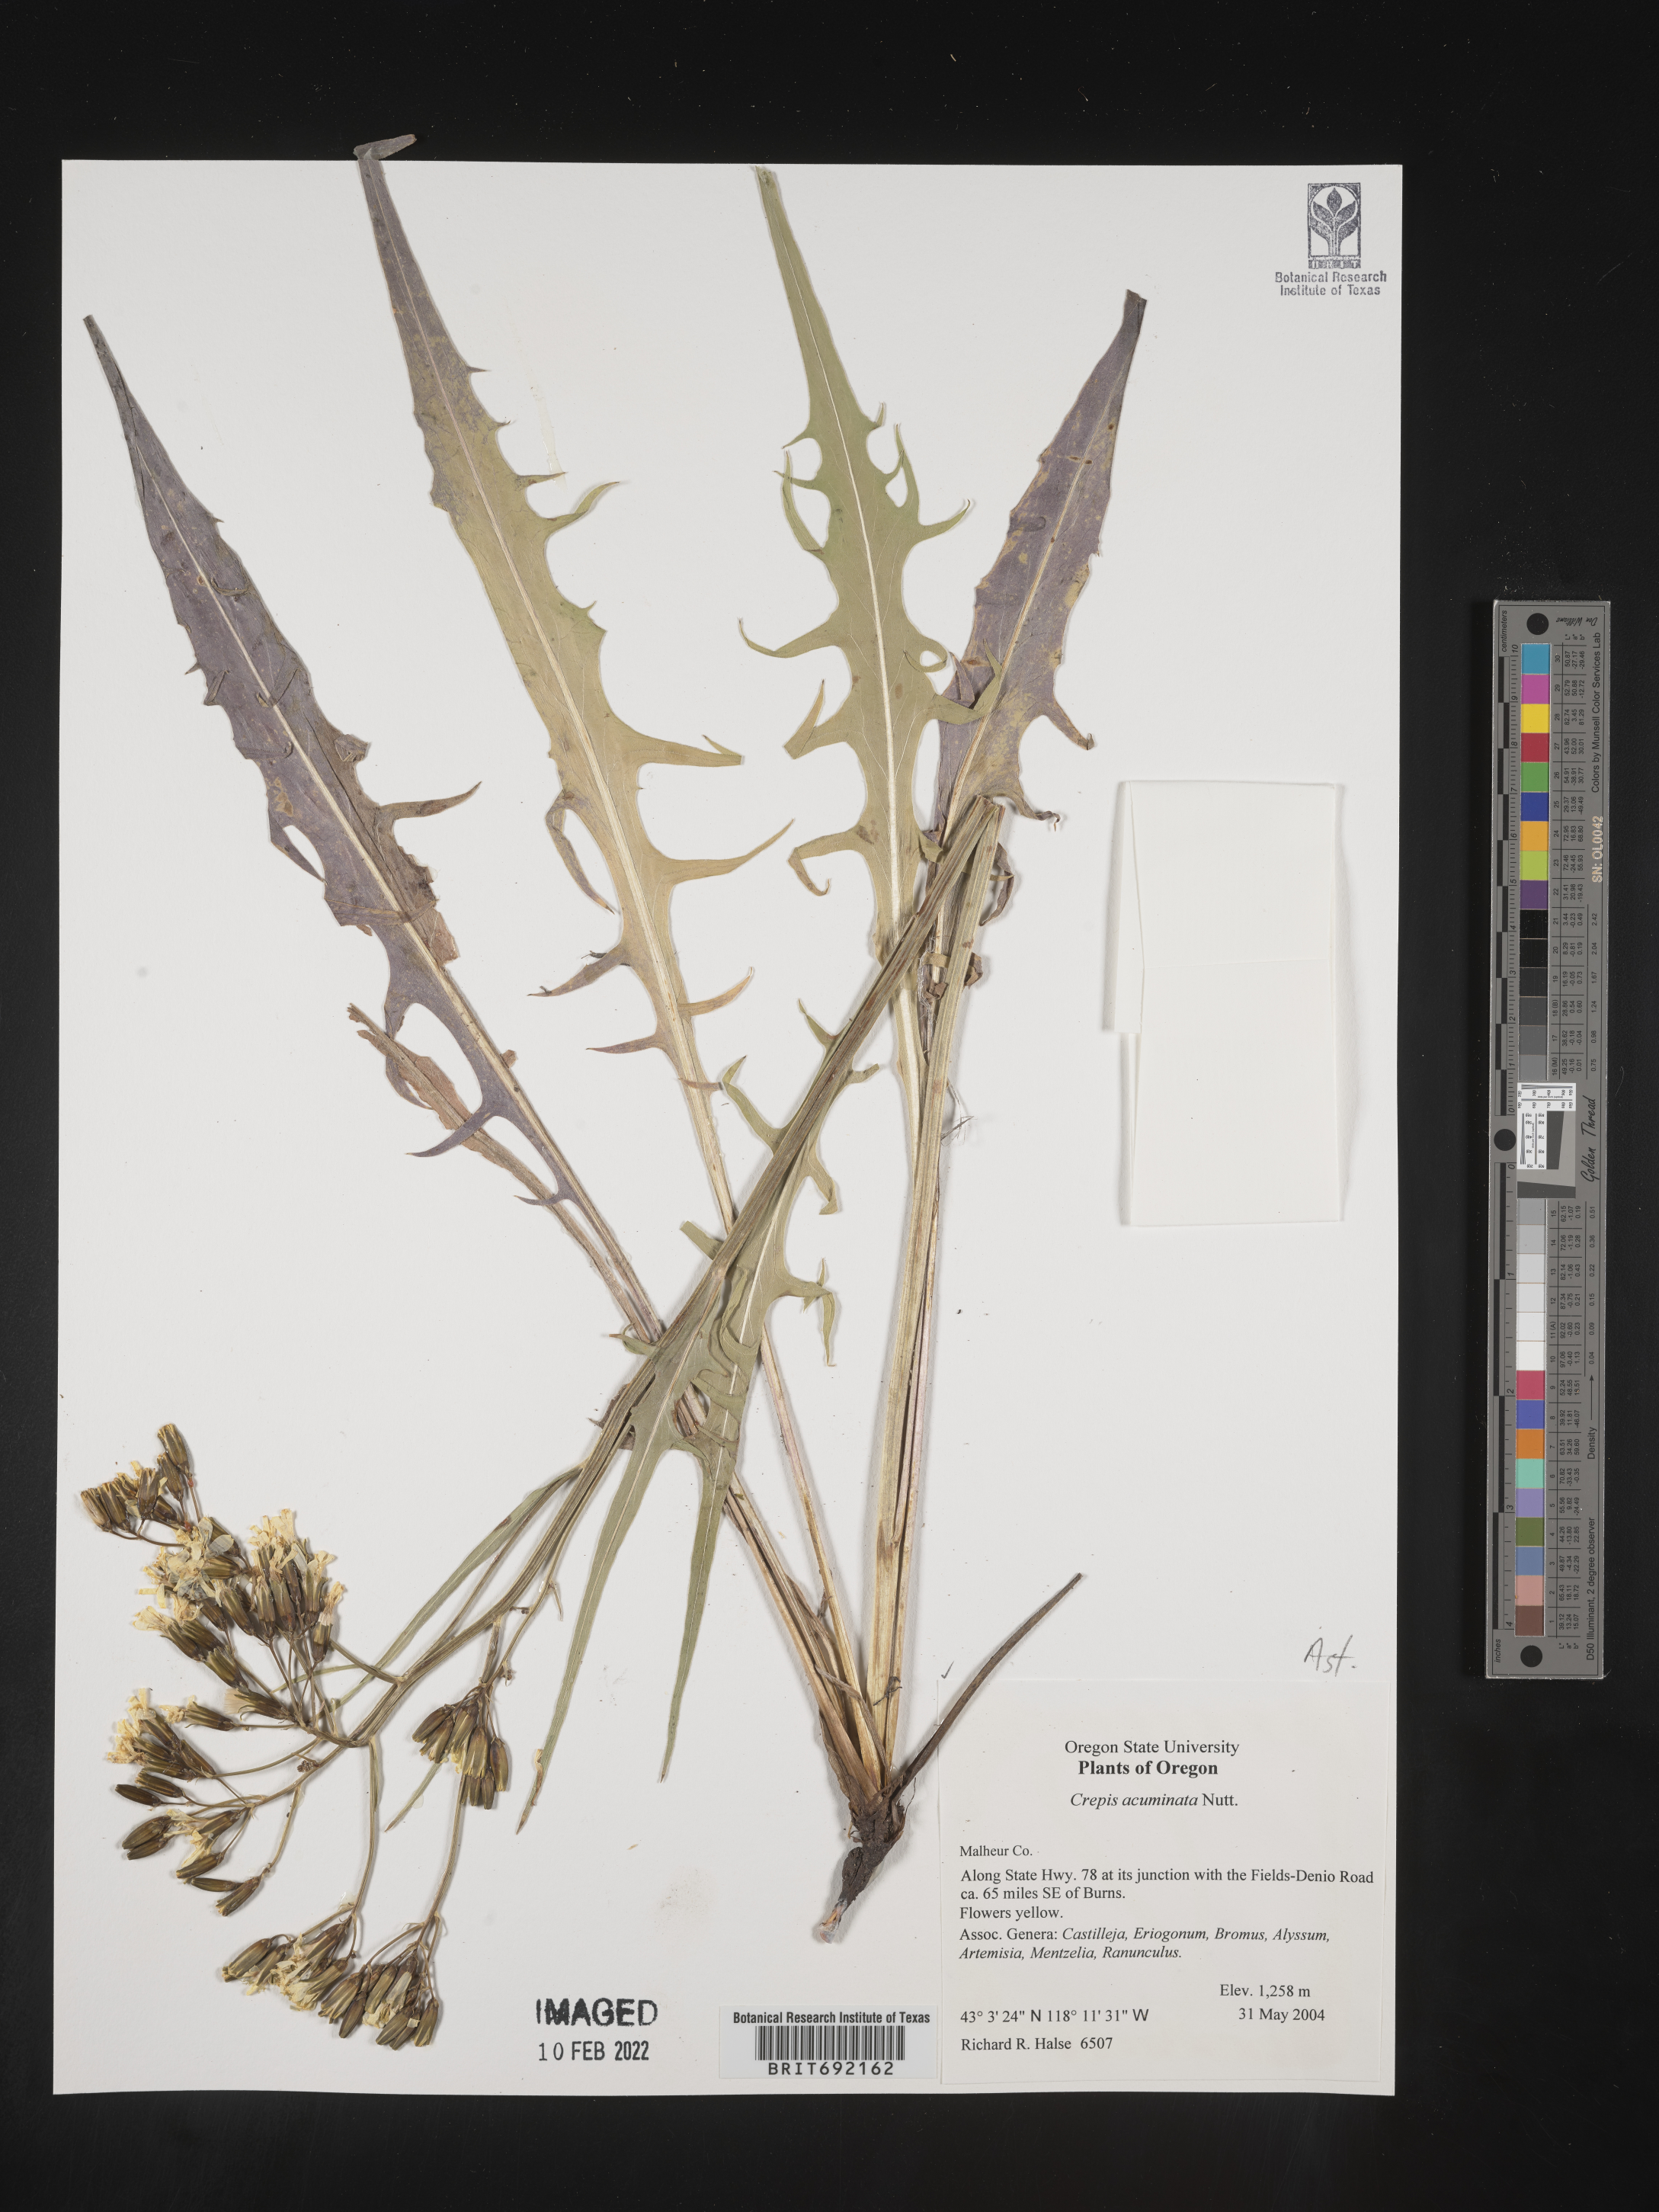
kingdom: Plantae
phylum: Tracheophyta
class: Magnoliopsida
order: Asterales
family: Asteraceae
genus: Crepis
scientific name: Crepis acuminata
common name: Longleaf hawk's-beard
